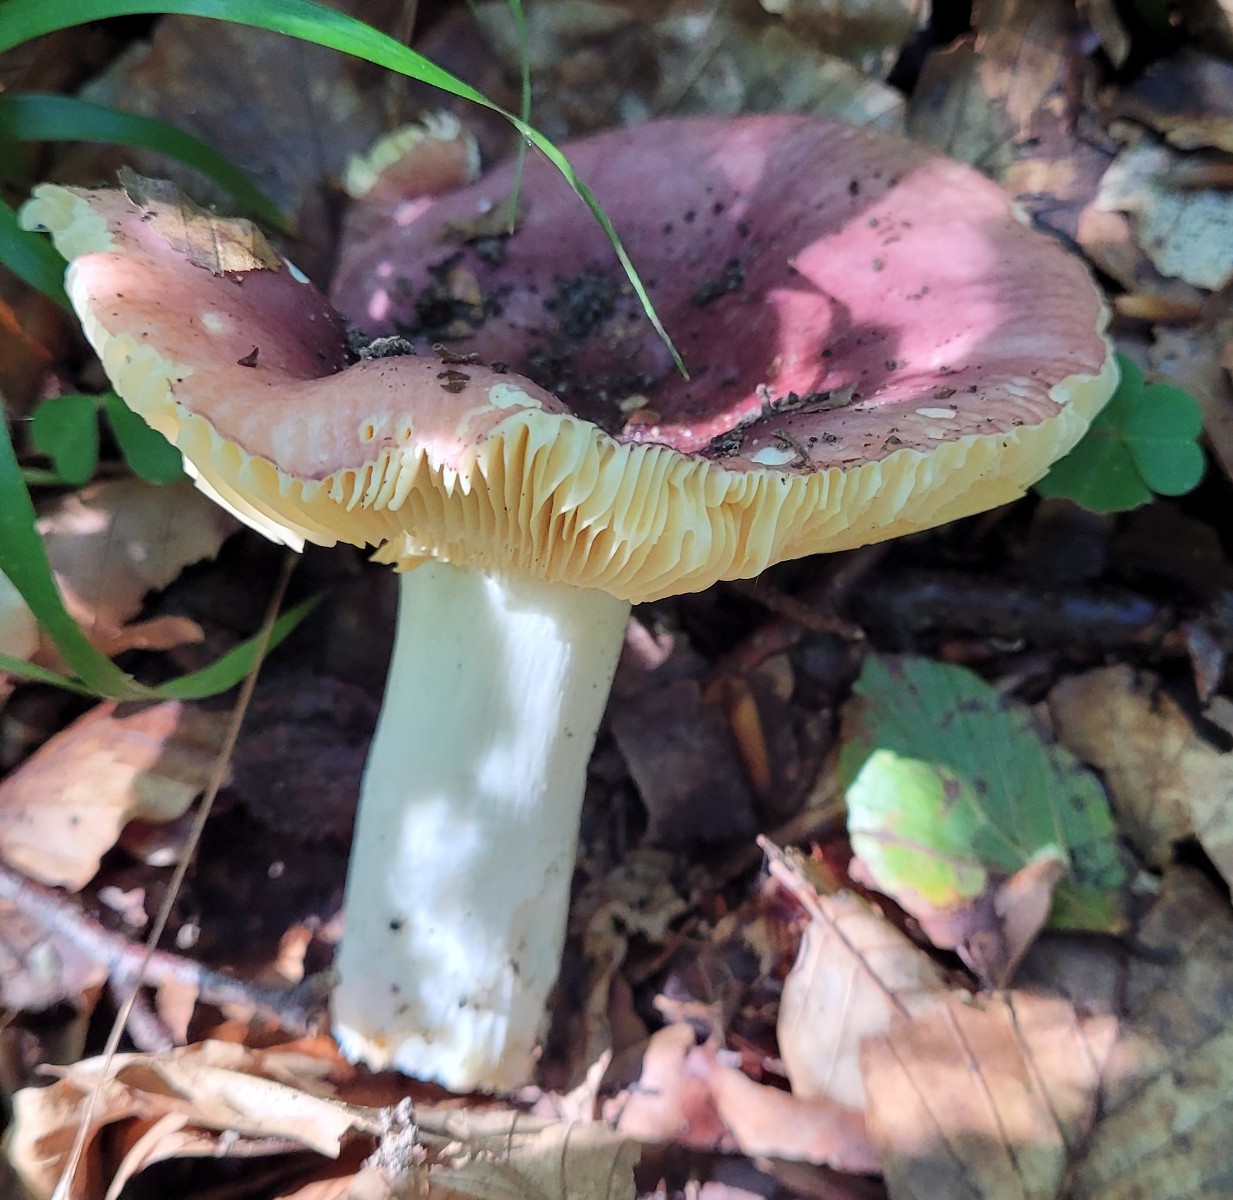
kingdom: Fungi
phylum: Basidiomycota
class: Agaricomycetes
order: Russulales
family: Russulaceae
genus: Russula
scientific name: Russula romellii
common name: romells skørhat
